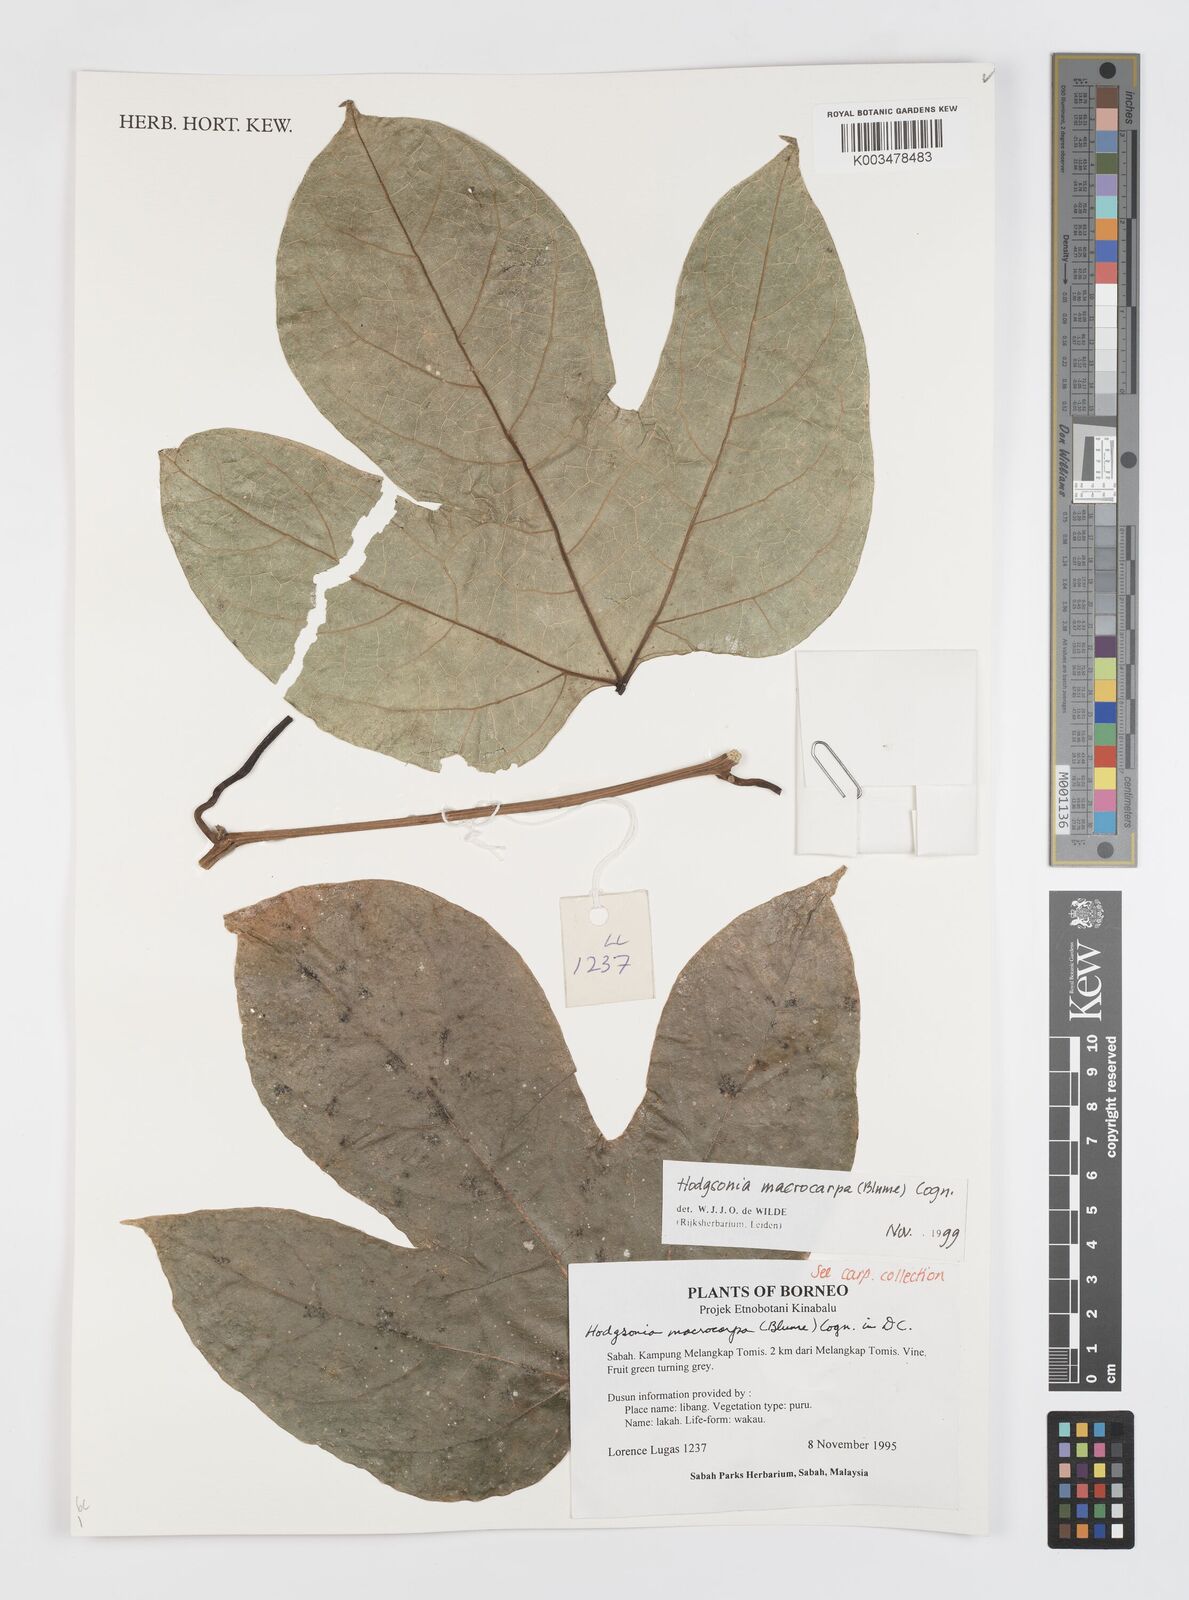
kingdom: Plantae
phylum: Tracheophyta
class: Magnoliopsida
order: Cucurbitales
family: Cucurbitaceae
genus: Hodgsonia
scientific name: Hodgsonia macrocarpa
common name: Chinese lardfruit
